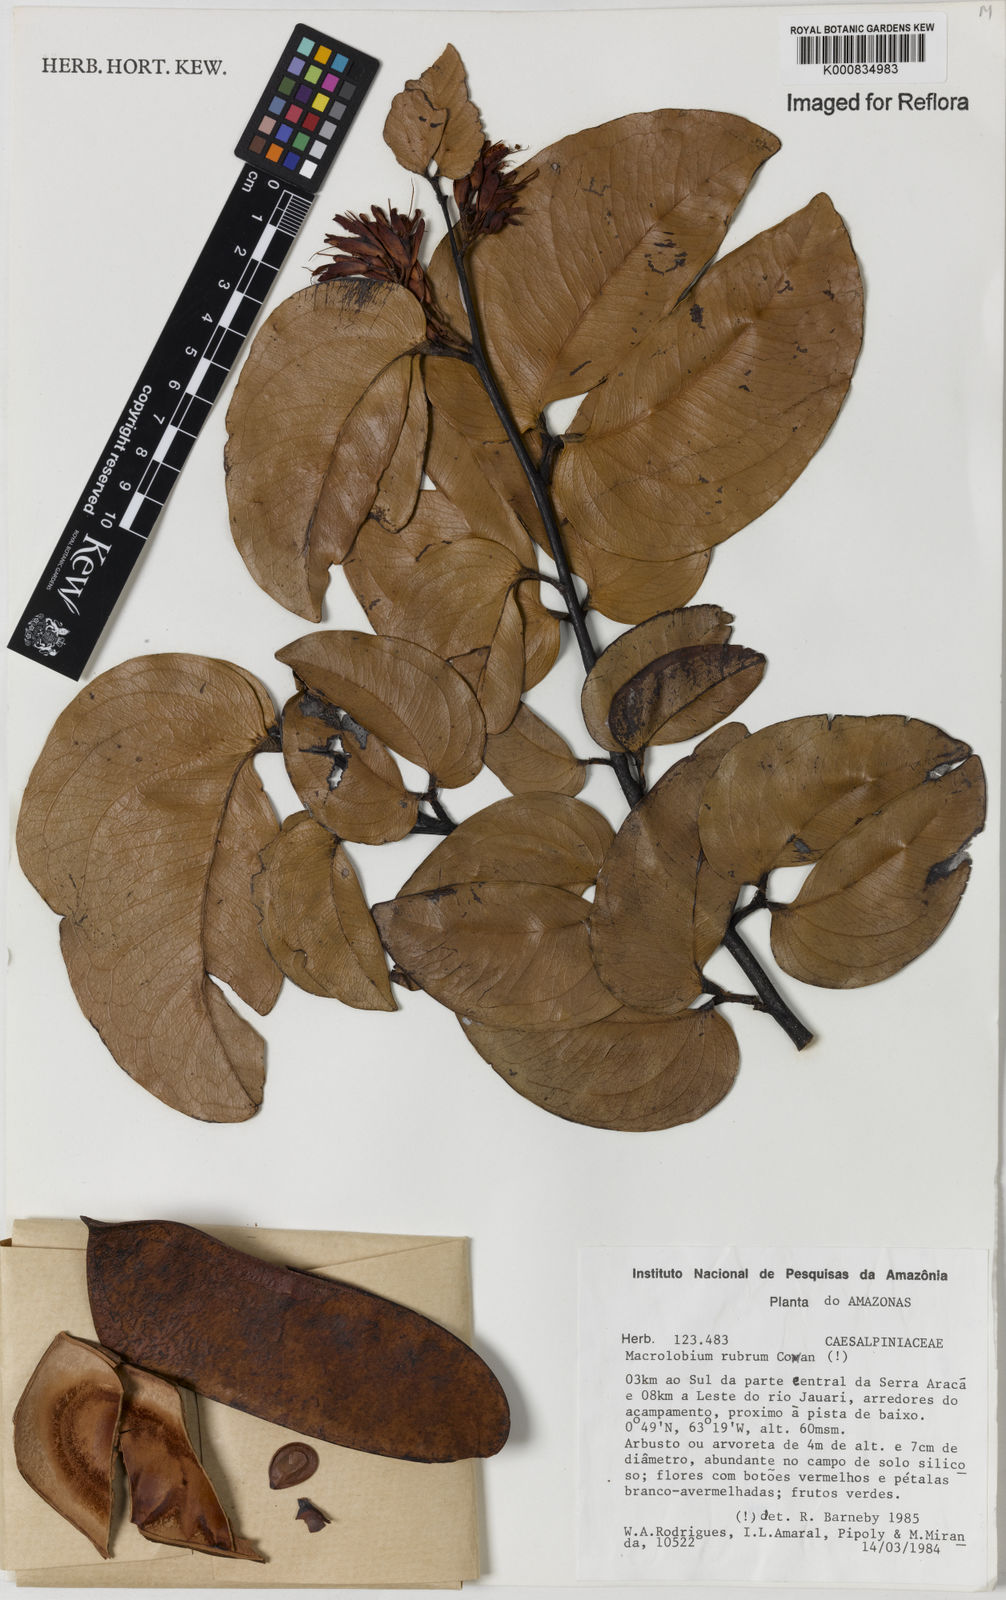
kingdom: Plantae
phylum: Tracheophyta
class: Magnoliopsida
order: Fabales
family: Fabaceae
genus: Macrolobium
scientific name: Macrolobium rubrum
